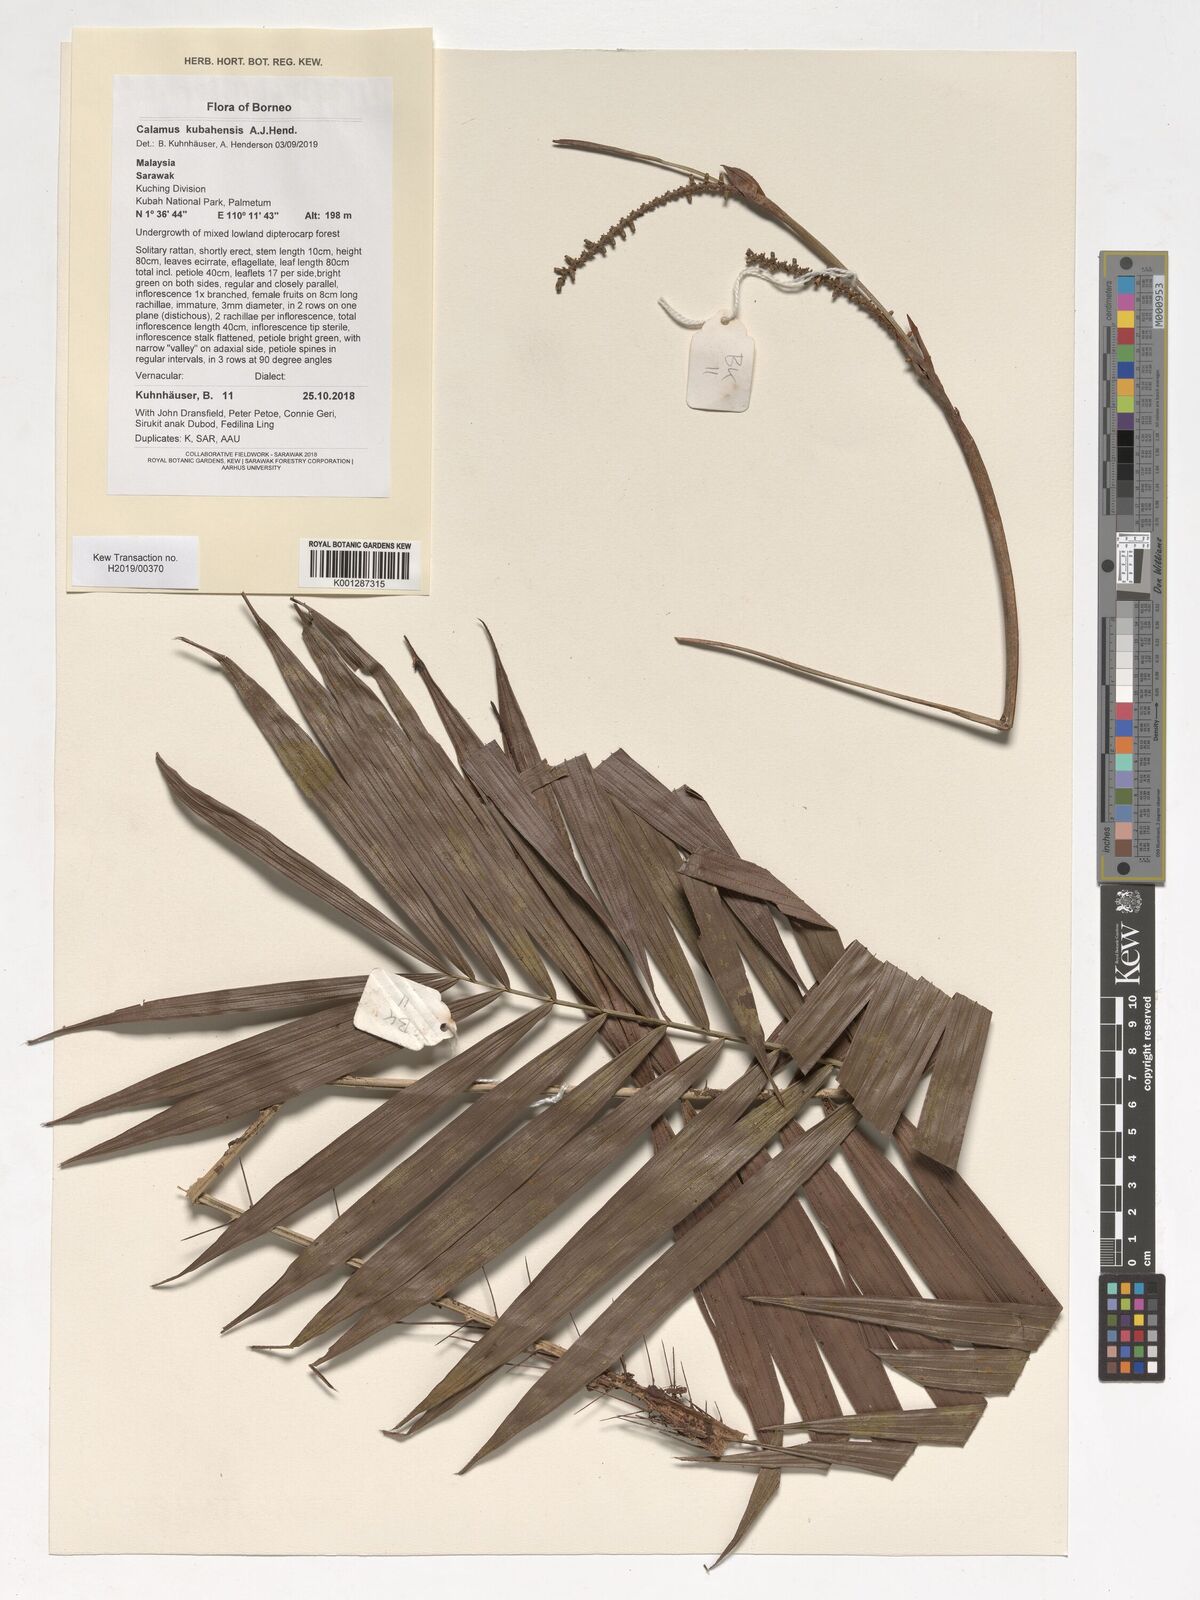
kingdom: Plantae
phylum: Tracheophyta
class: Liliopsida
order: Arecales
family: Arecaceae
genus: Calamus
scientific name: Calamus
